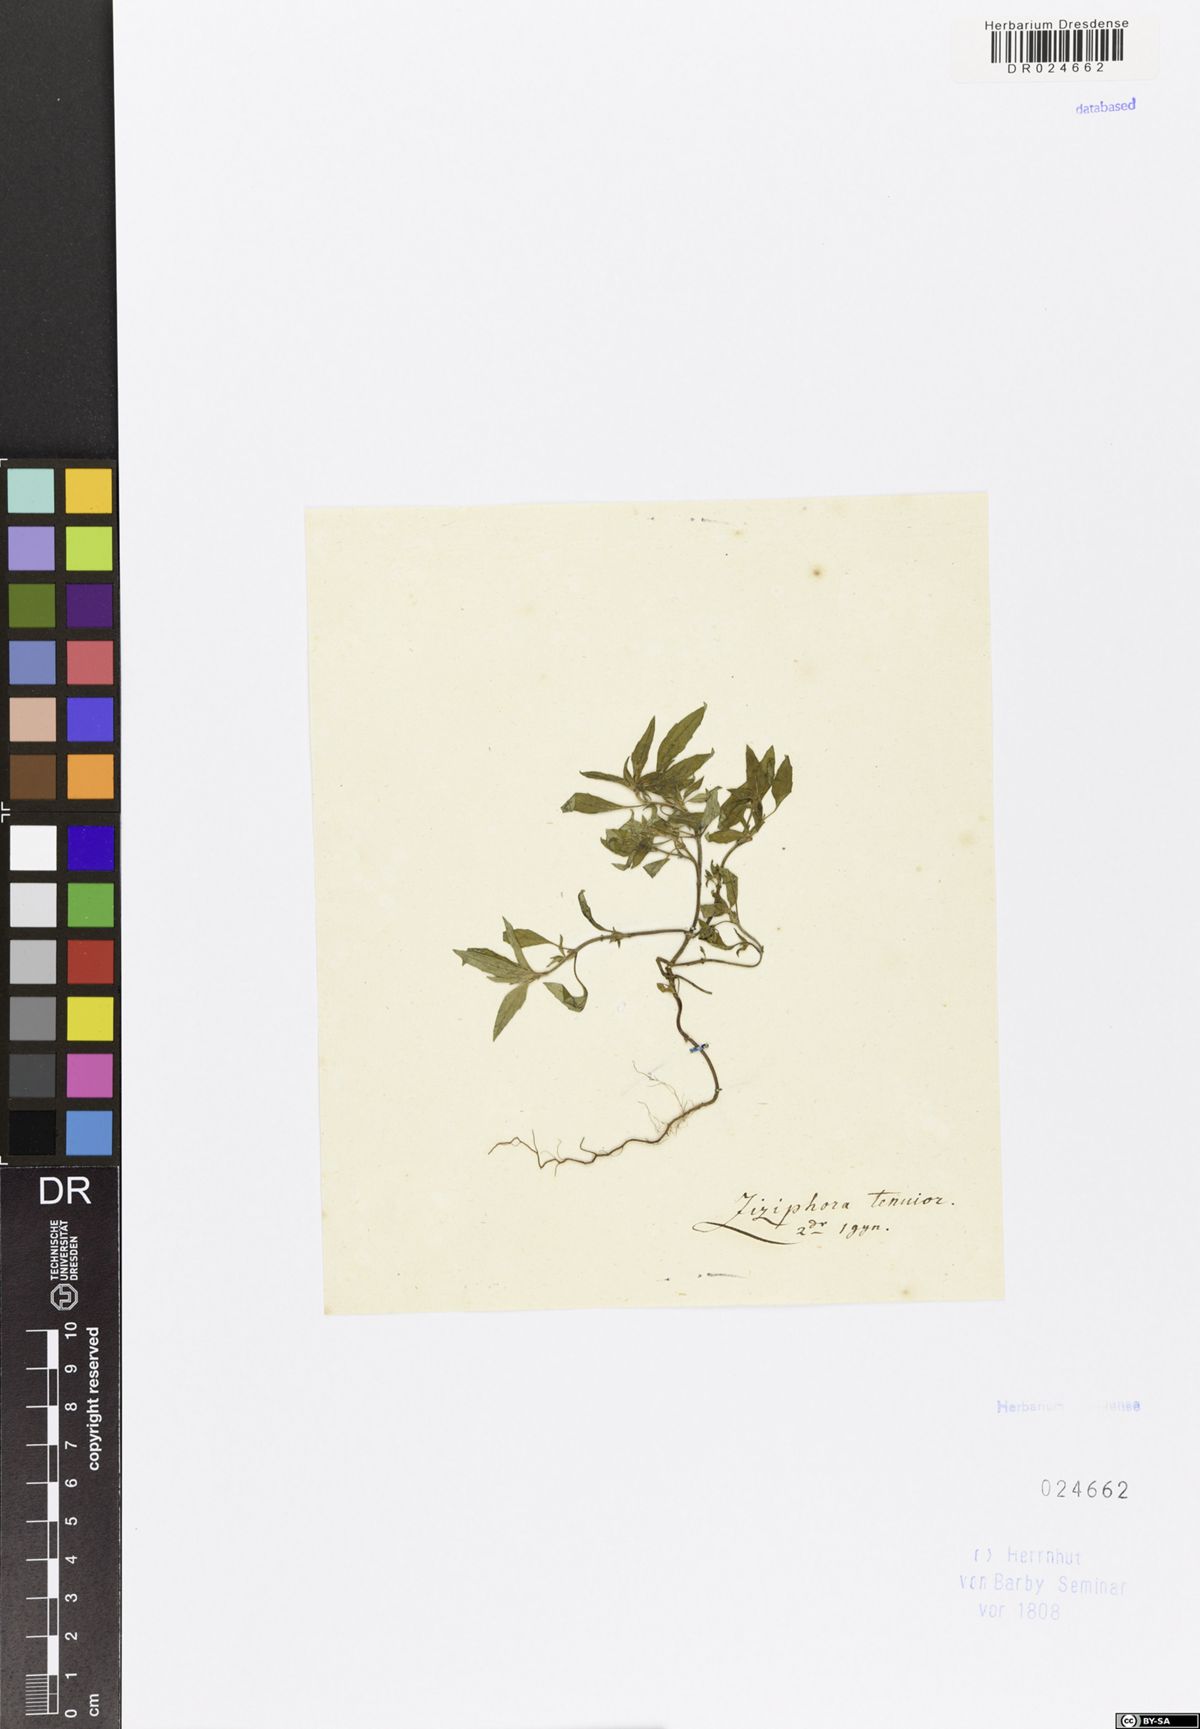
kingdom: Plantae
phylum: Tracheophyta
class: Magnoliopsida
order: Lamiales
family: Lamiaceae
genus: Ziziphora
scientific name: Ziziphora tenuior
